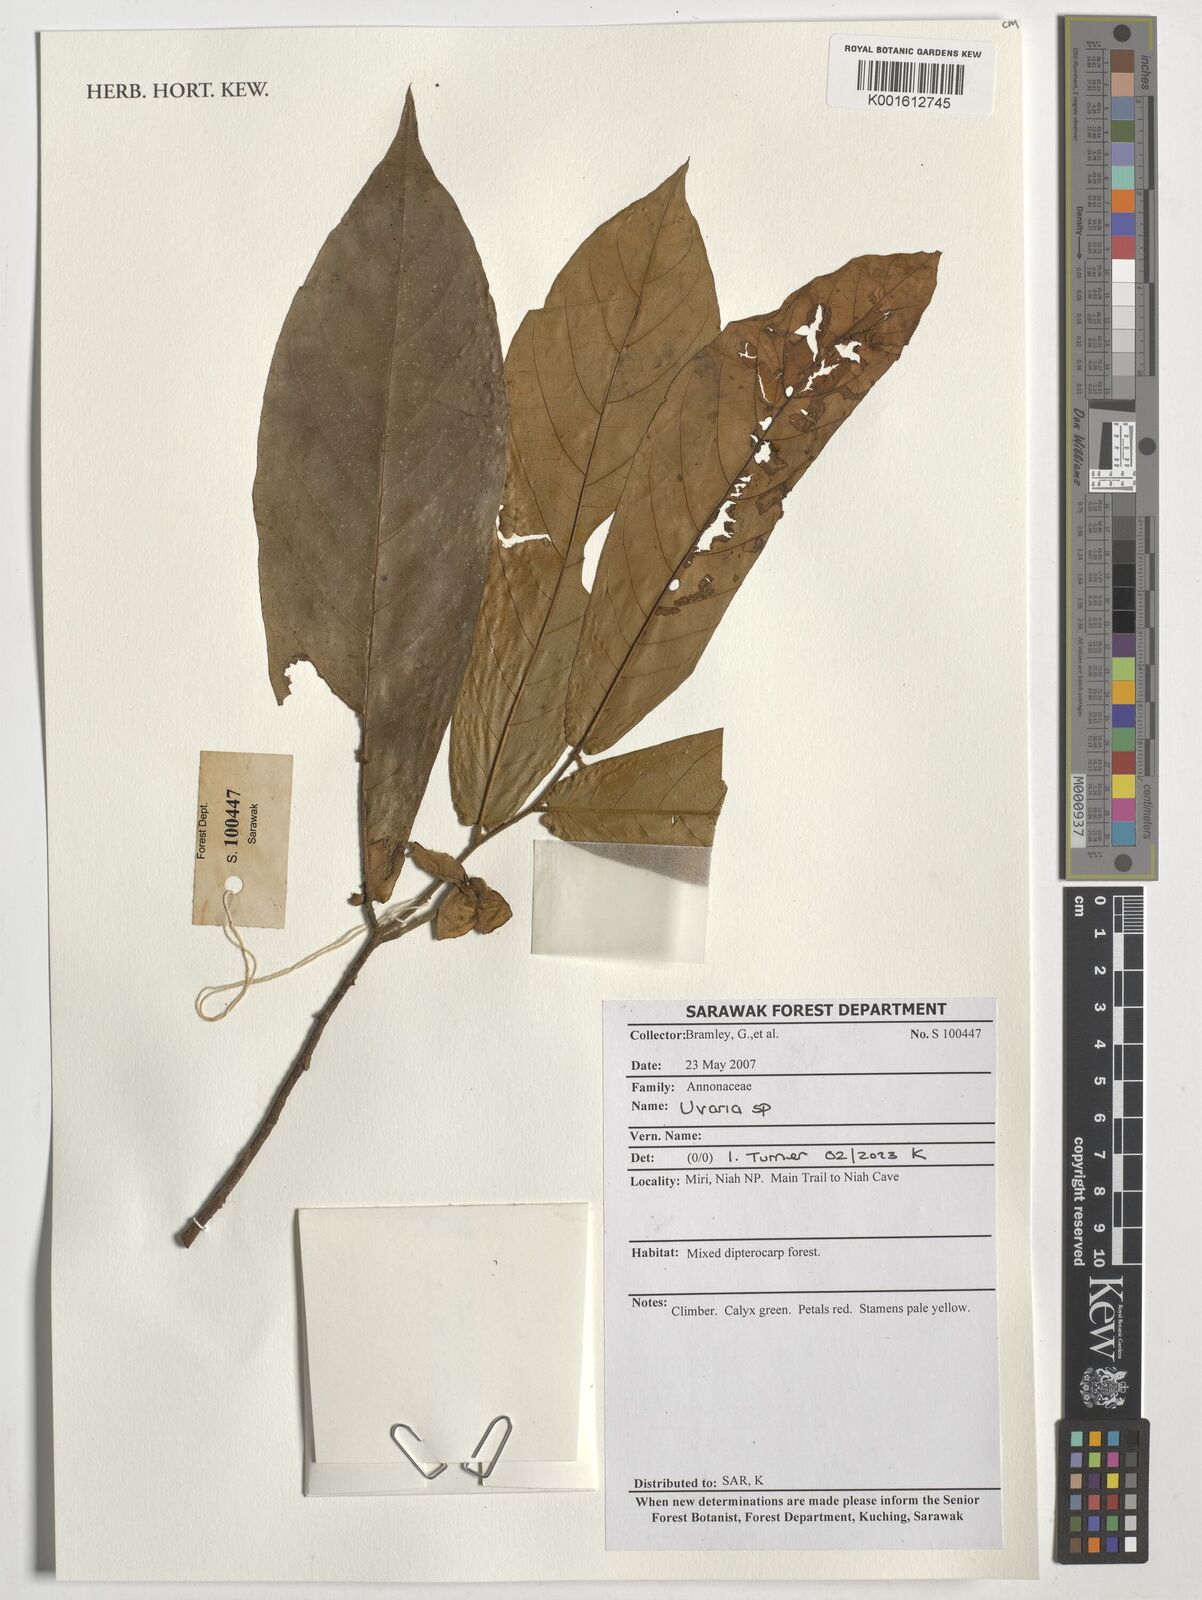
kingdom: Plantae
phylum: Tracheophyta
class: Magnoliopsida
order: Magnoliales
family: Annonaceae
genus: Uvaria
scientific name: Uvaria
